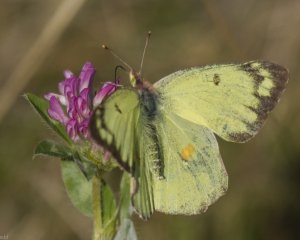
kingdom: Animalia
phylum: Arthropoda
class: Insecta
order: Lepidoptera
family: Pieridae
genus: Colias
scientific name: Colias philodice
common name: Clouded Sulphur
